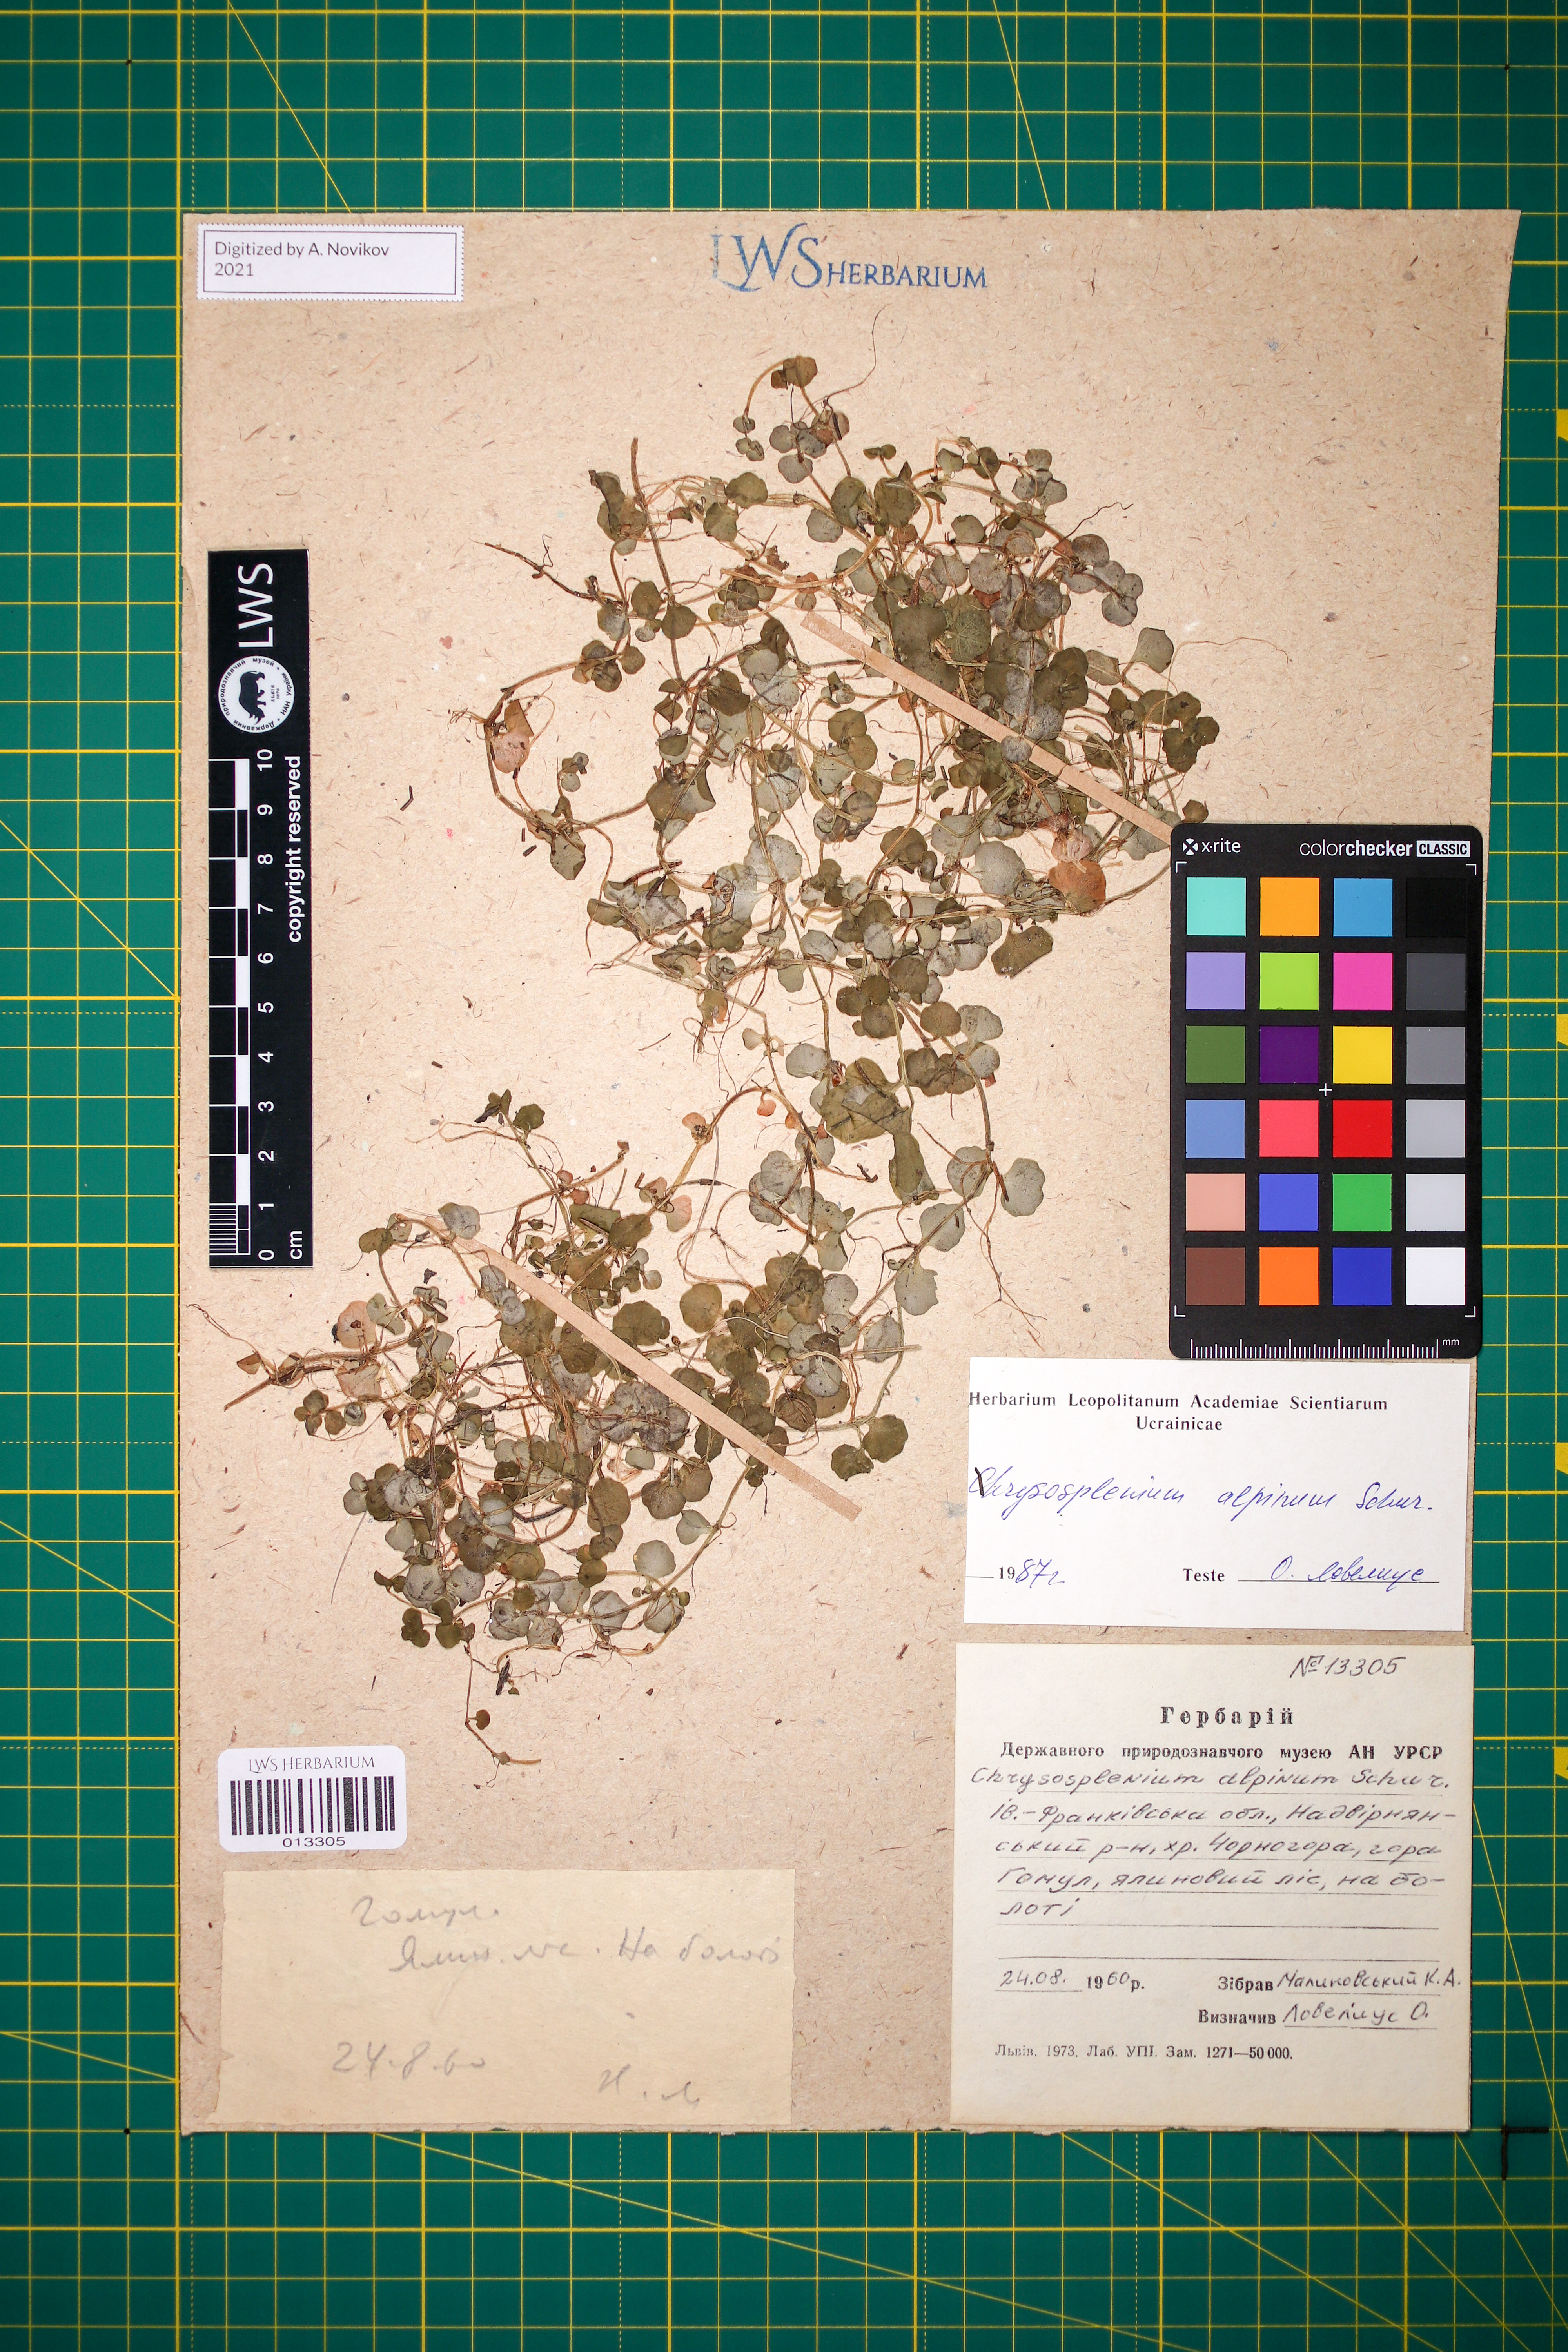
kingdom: Plantae
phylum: Tracheophyta
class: Magnoliopsida
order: Saxifragales
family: Saxifragaceae
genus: Chrysosplenium
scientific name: Chrysosplenium alpinum
